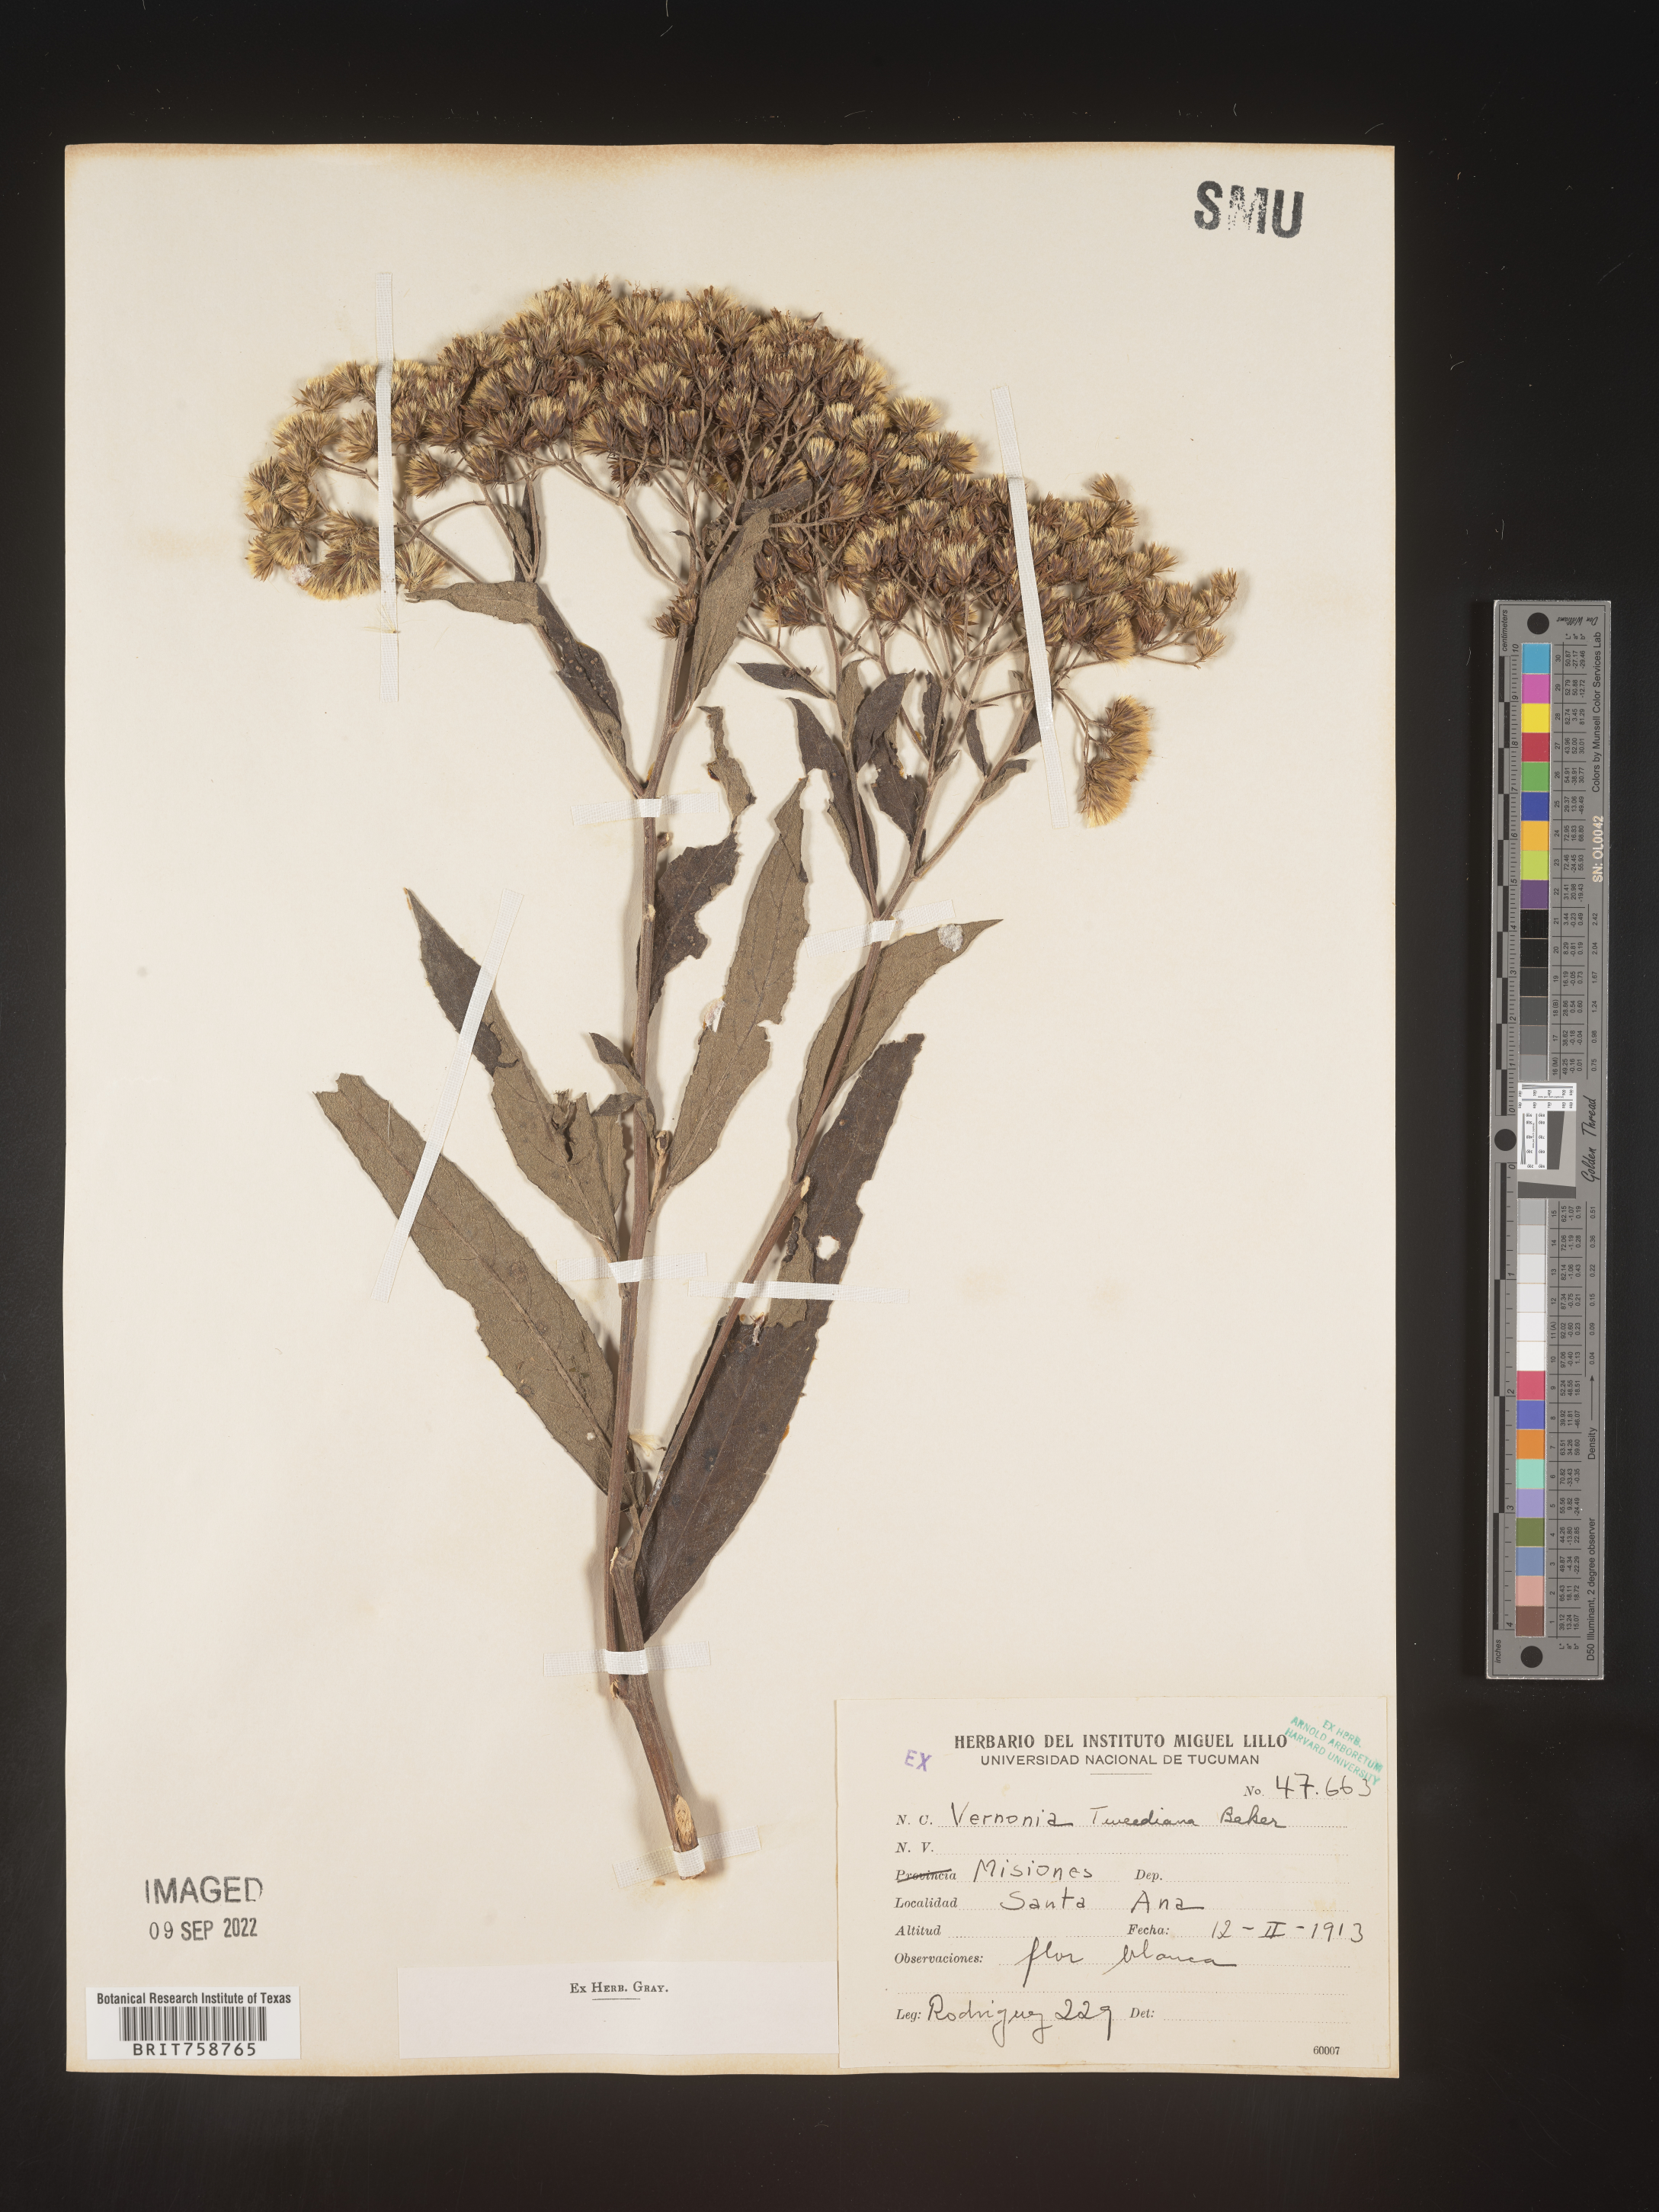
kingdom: Plantae
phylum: Tracheophyta
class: Magnoliopsida
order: Asterales
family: Asteraceae
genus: Vernonia
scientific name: Vernonia
